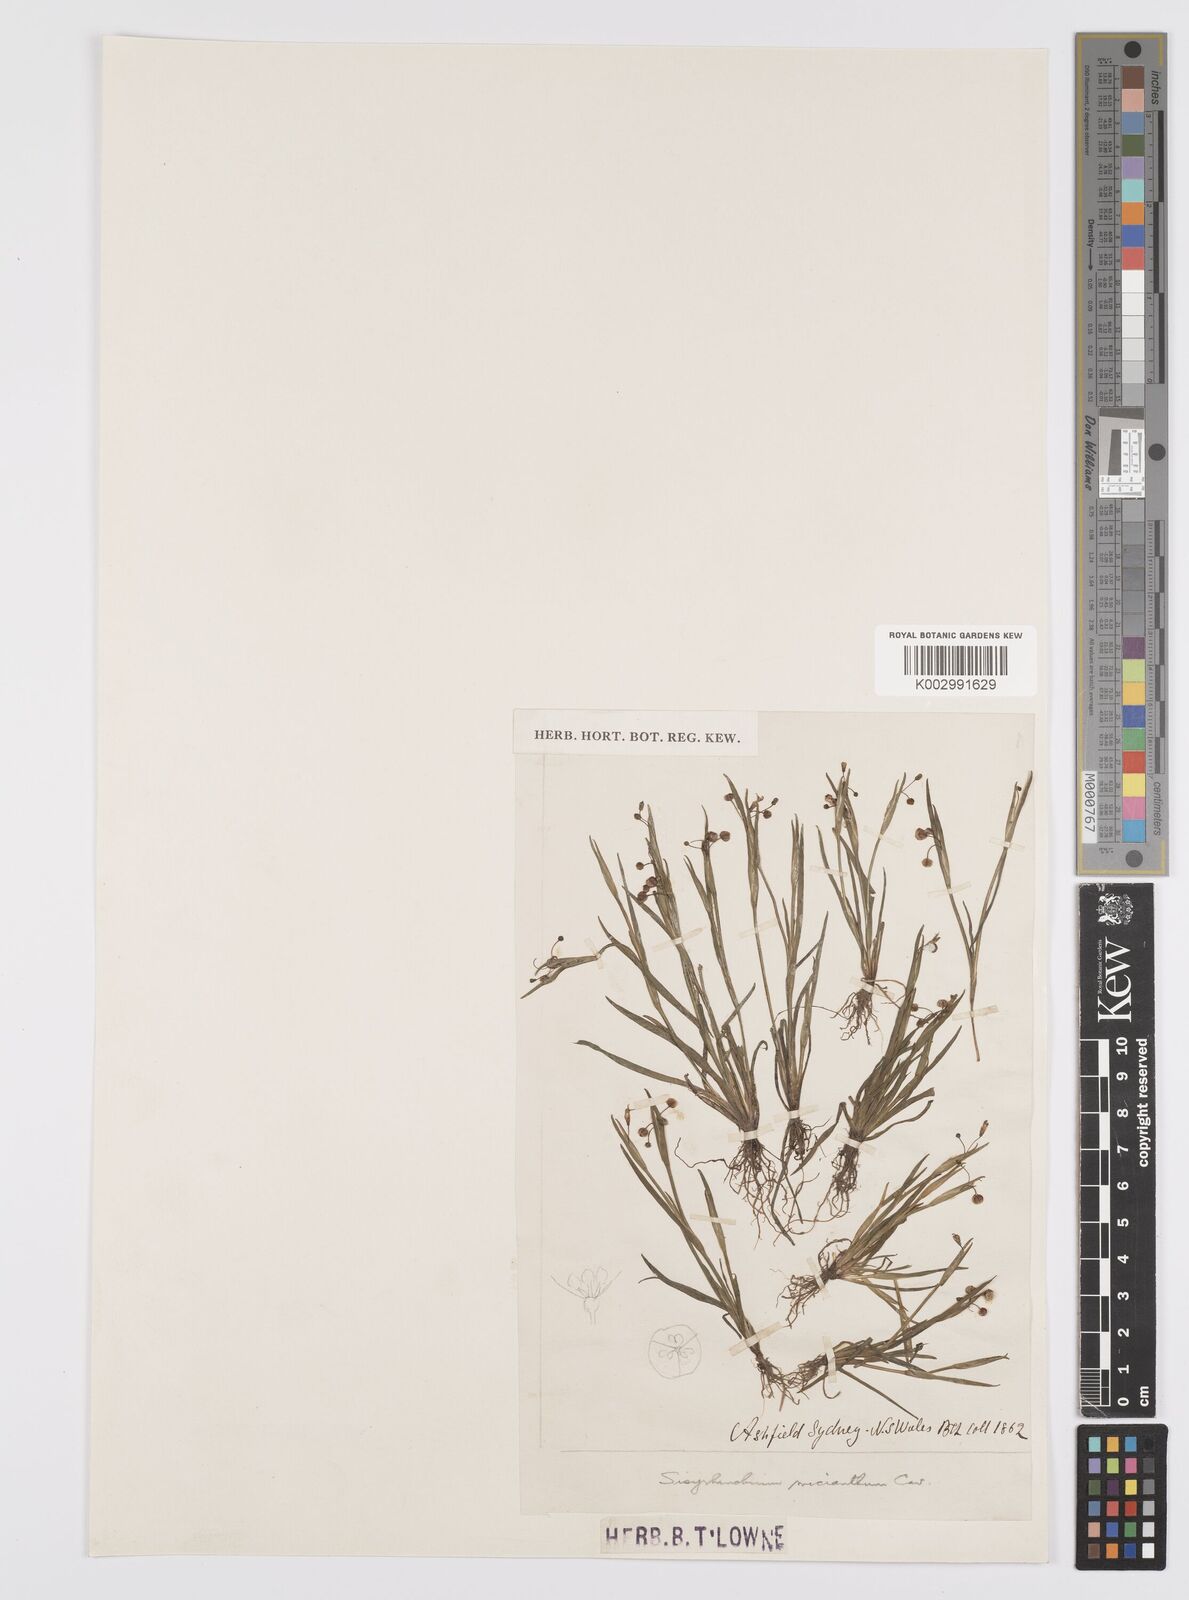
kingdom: Plantae
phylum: Tracheophyta
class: Liliopsida
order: Asparagales
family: Iridaceae
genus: Sisyrinchium
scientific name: Sisyrinchium micranthum
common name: Bermuda pigroot
